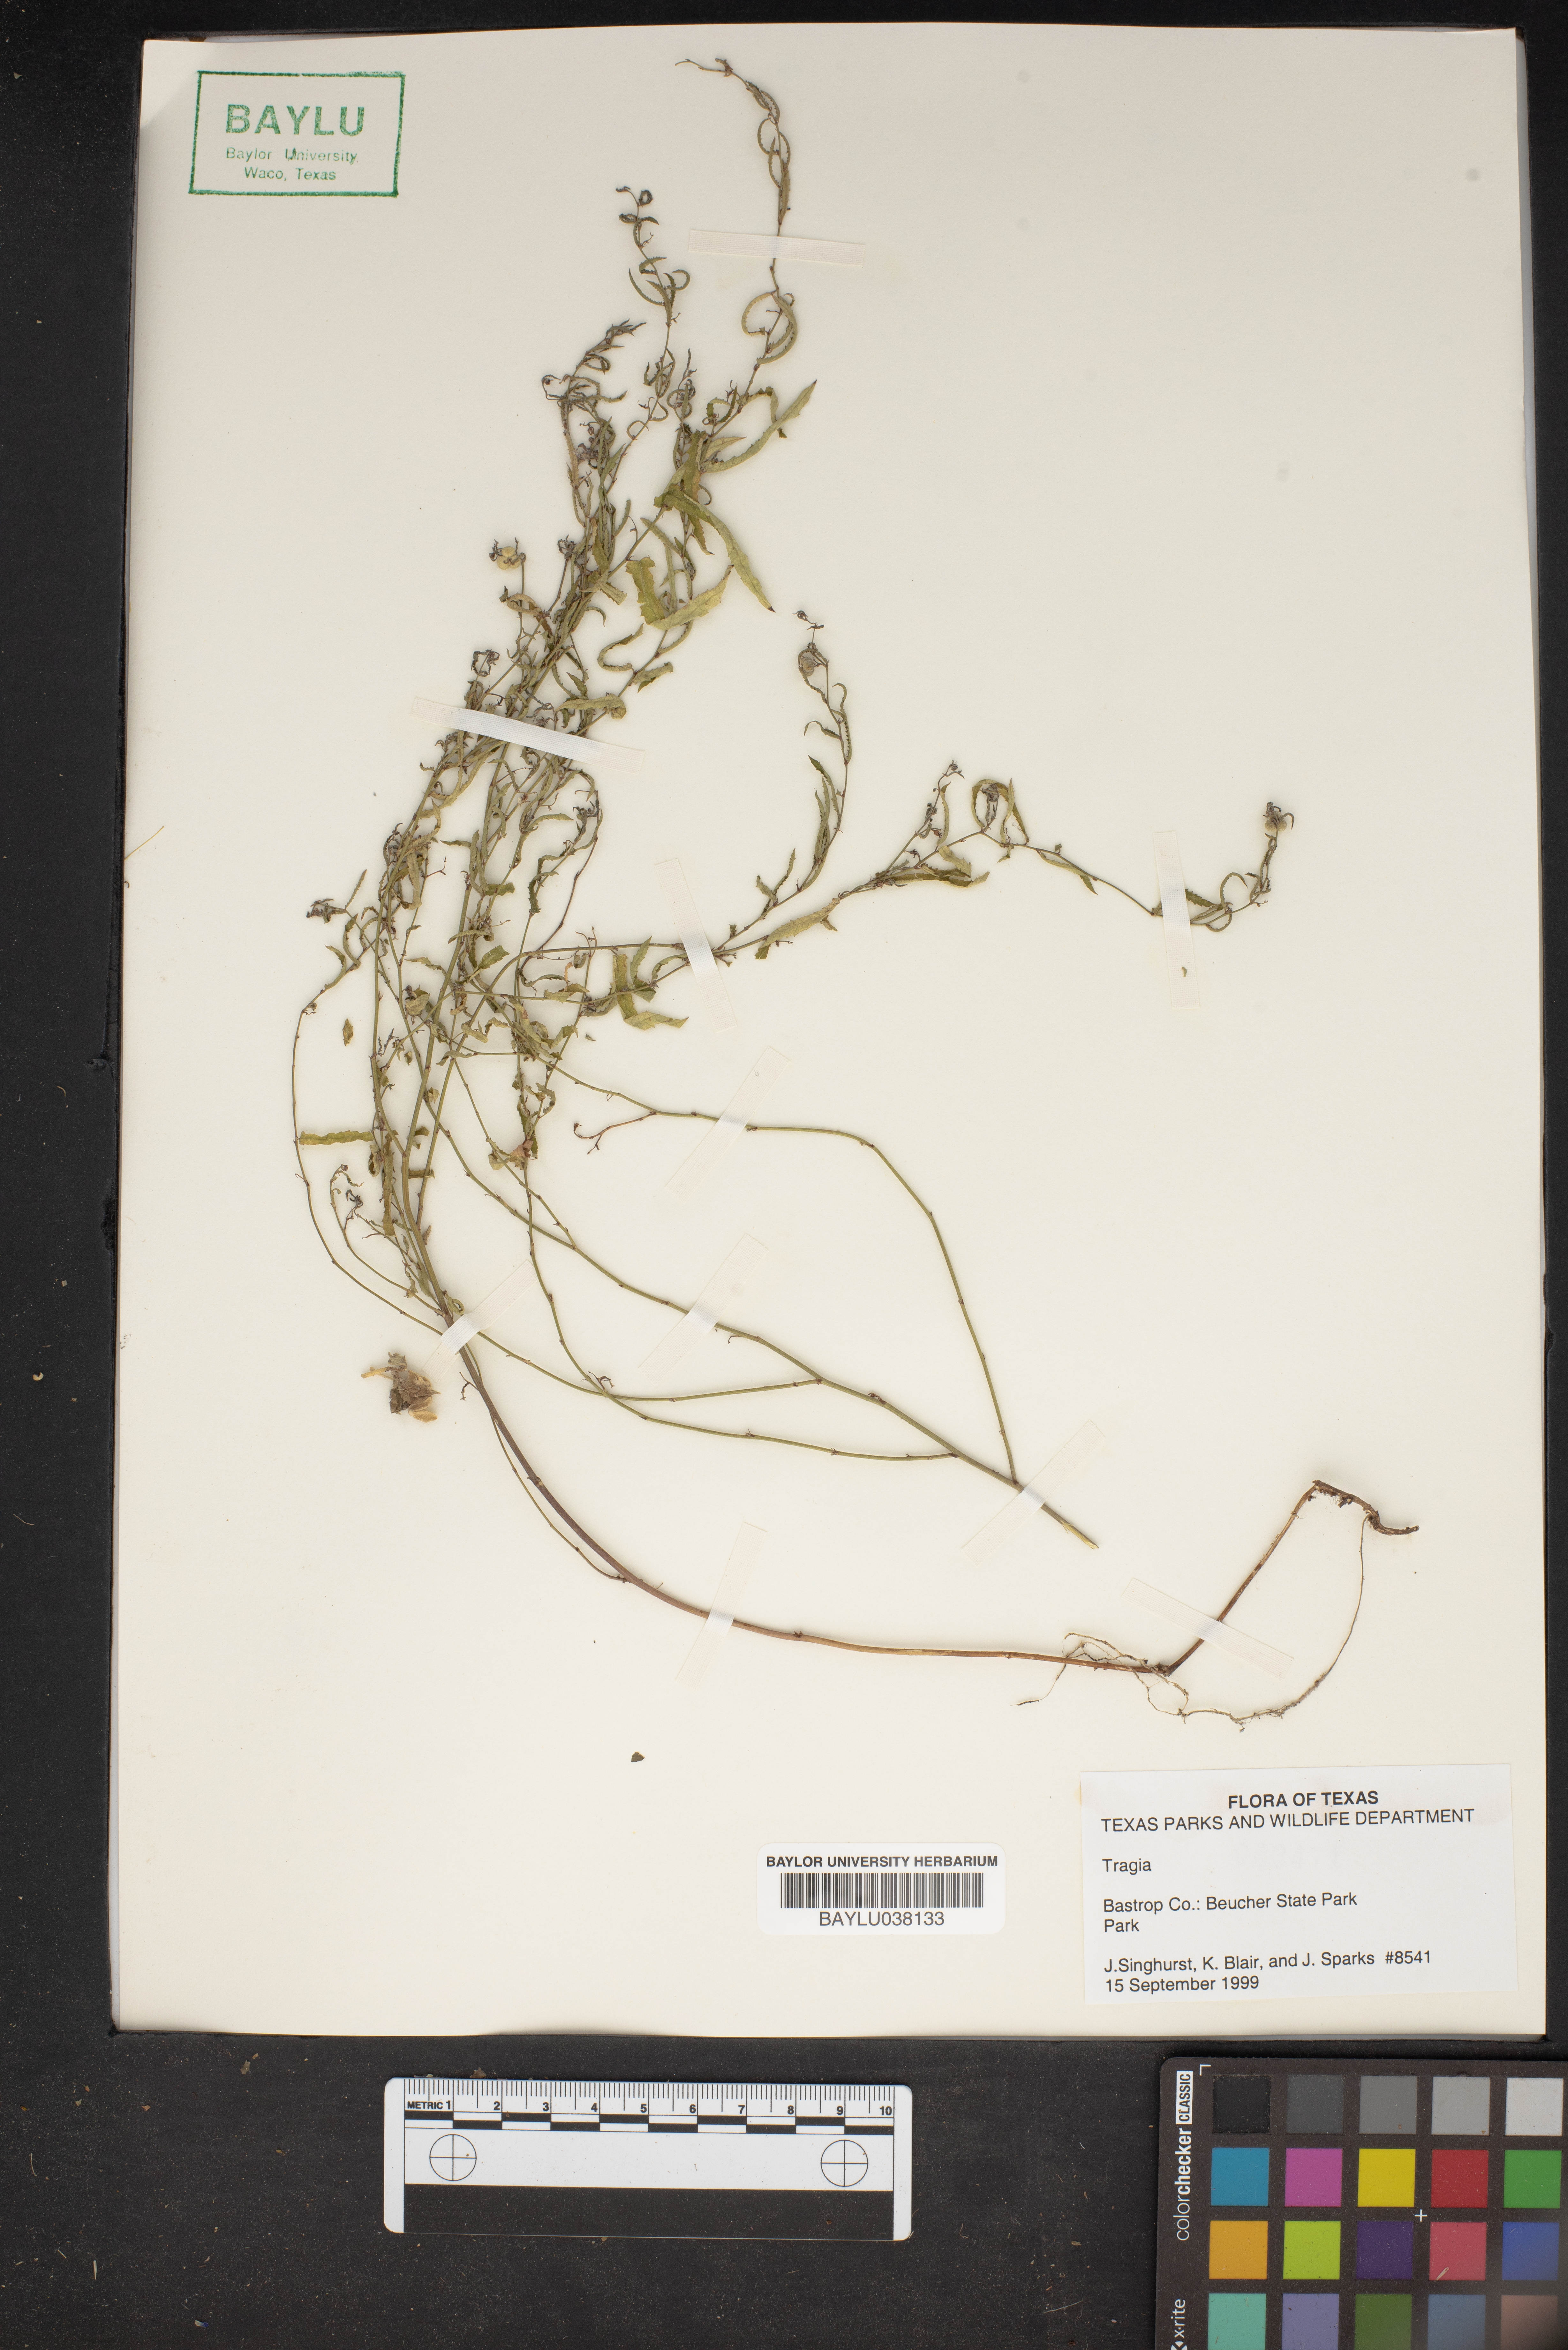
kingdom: Plantae
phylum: Tracheophyta
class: Magnoliopsida
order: Malpighiales
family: Euphorbiaceae
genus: Tragia
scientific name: Tragia
